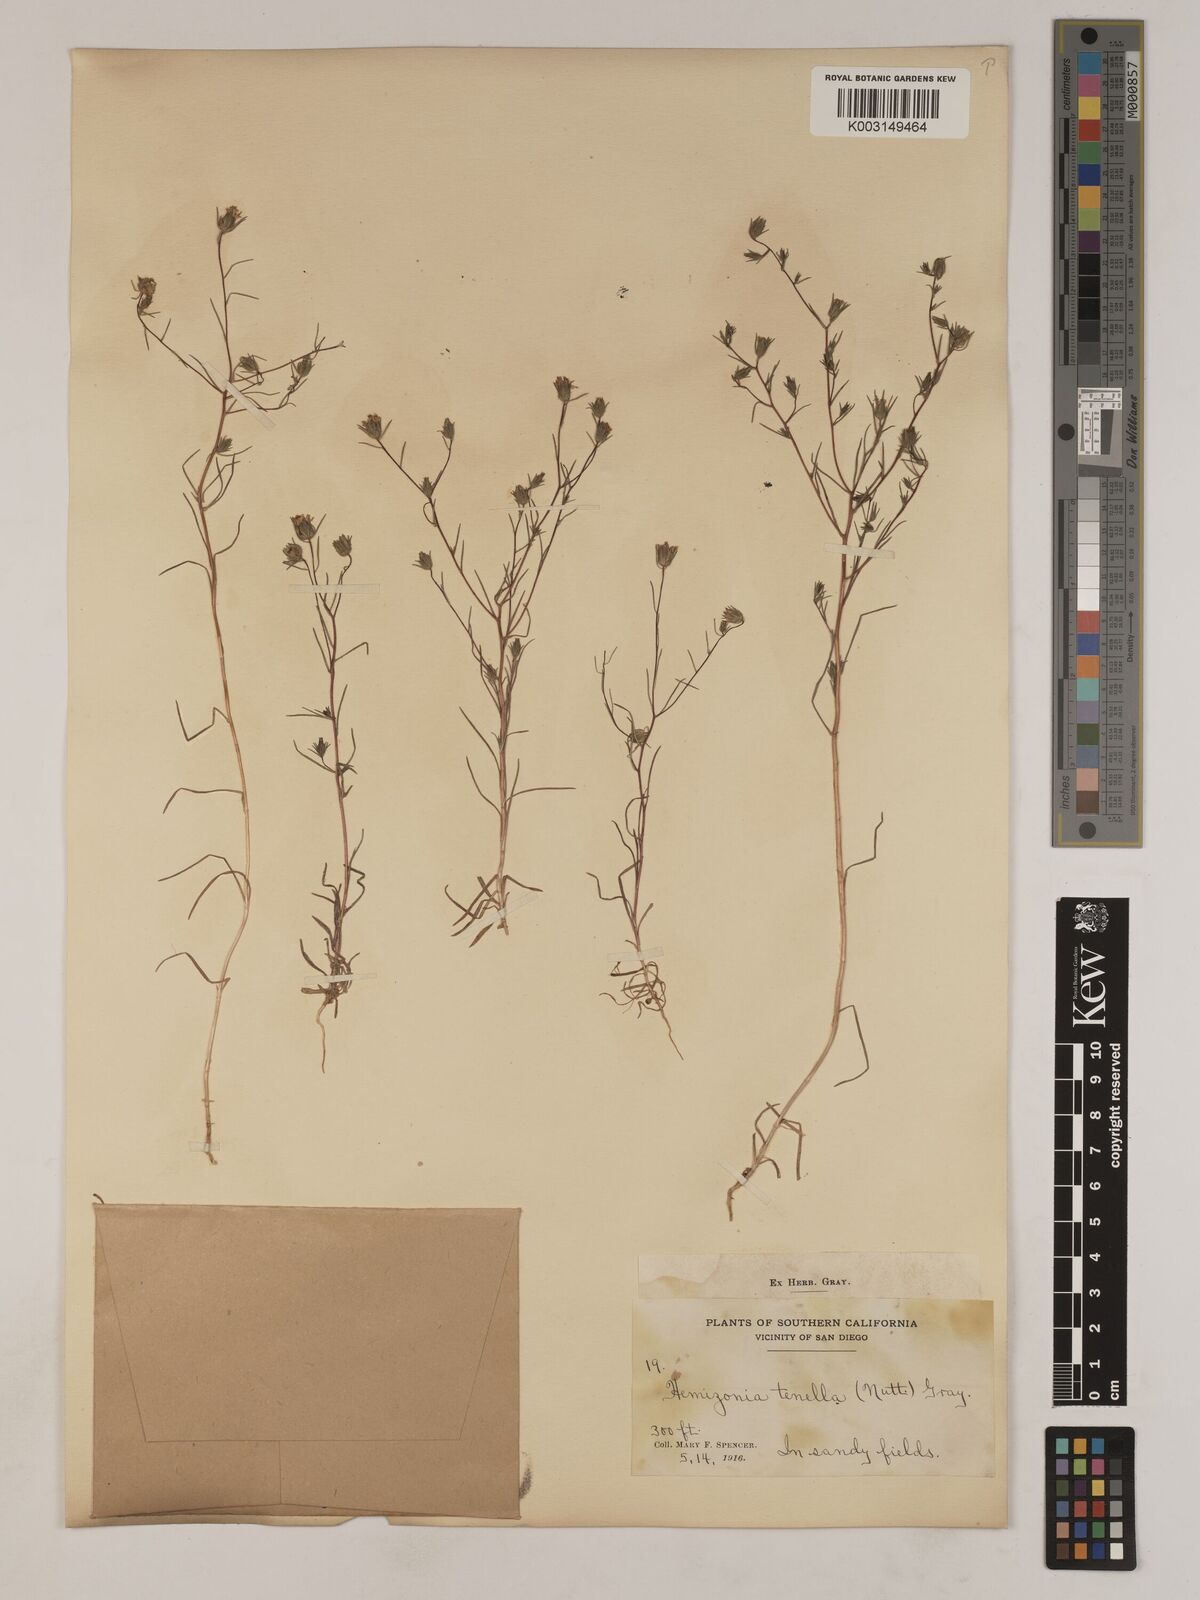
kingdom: Plantae
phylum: Tracheophyta
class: Magnoliopsida
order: Asterales
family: Asteraceae
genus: Osmadenia
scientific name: Osmadenia tenella
